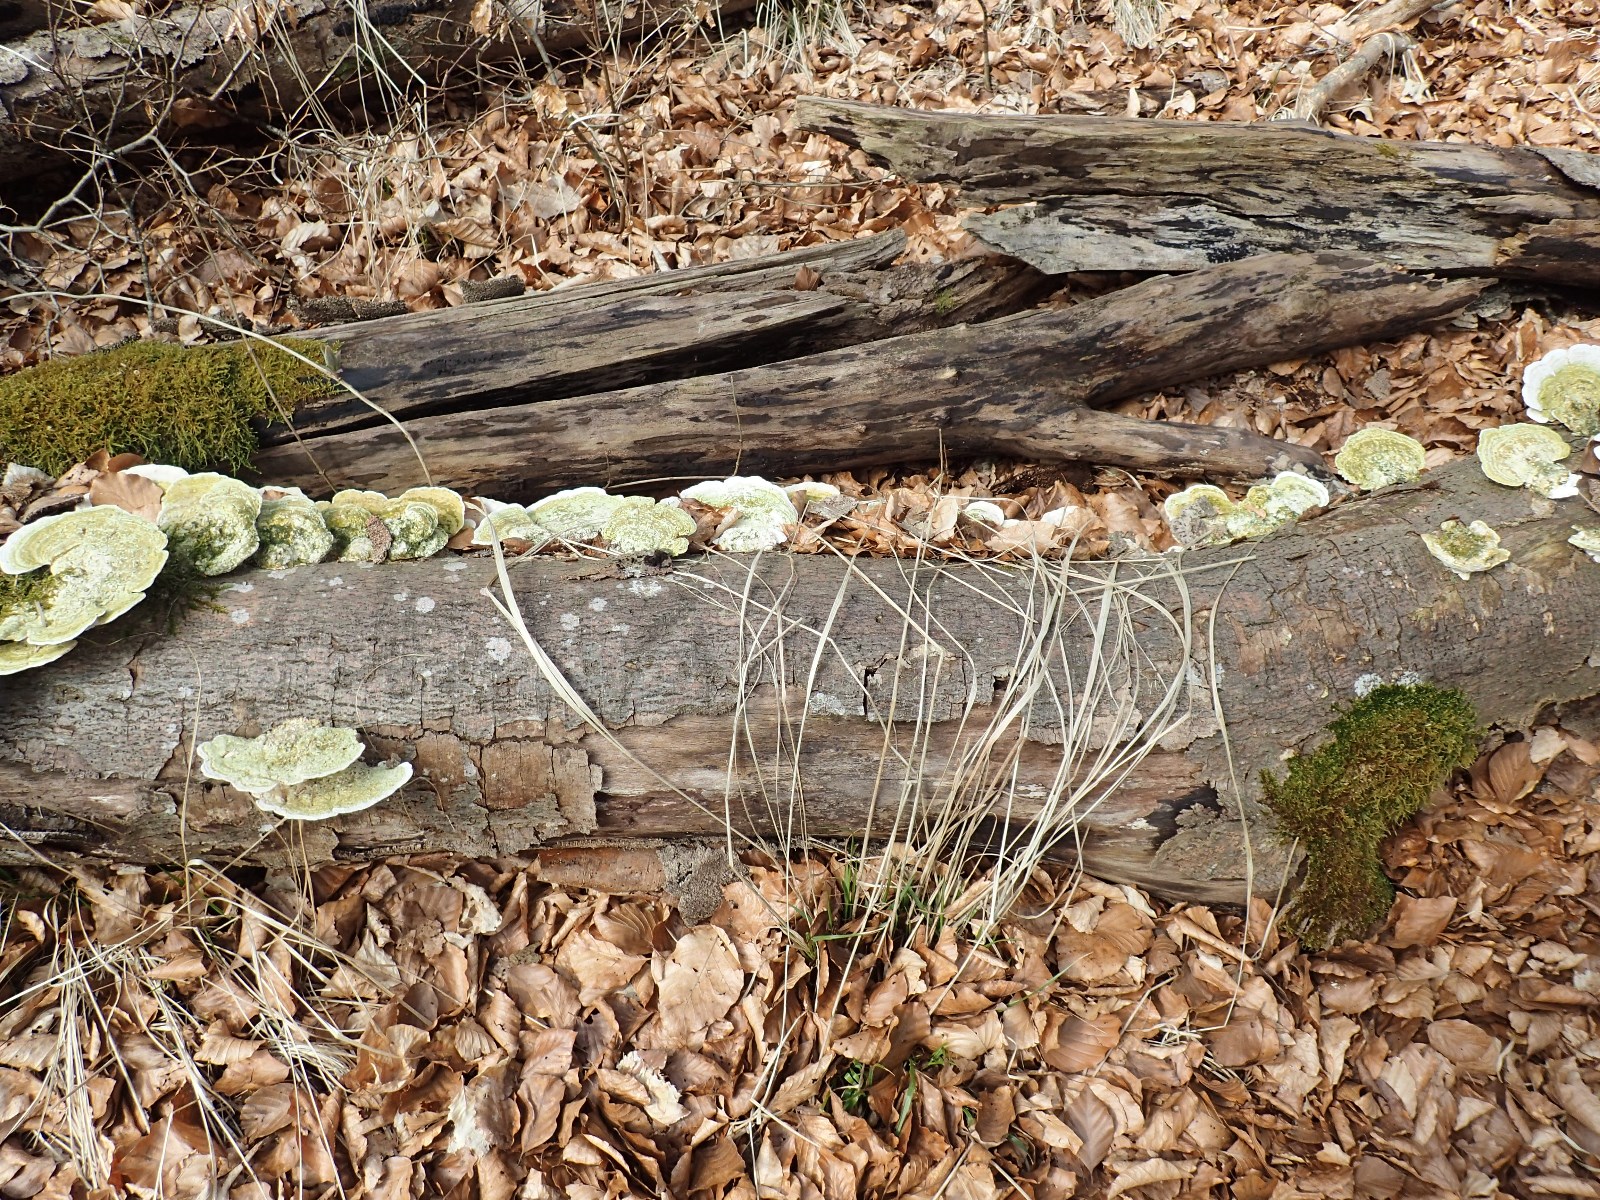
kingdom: Fungi
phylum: Basidiomycota
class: Agaricomycetes
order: Polyporales
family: Polyporaceae
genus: Trametes
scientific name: Trametes hirsuta
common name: håret læderporesvamp
